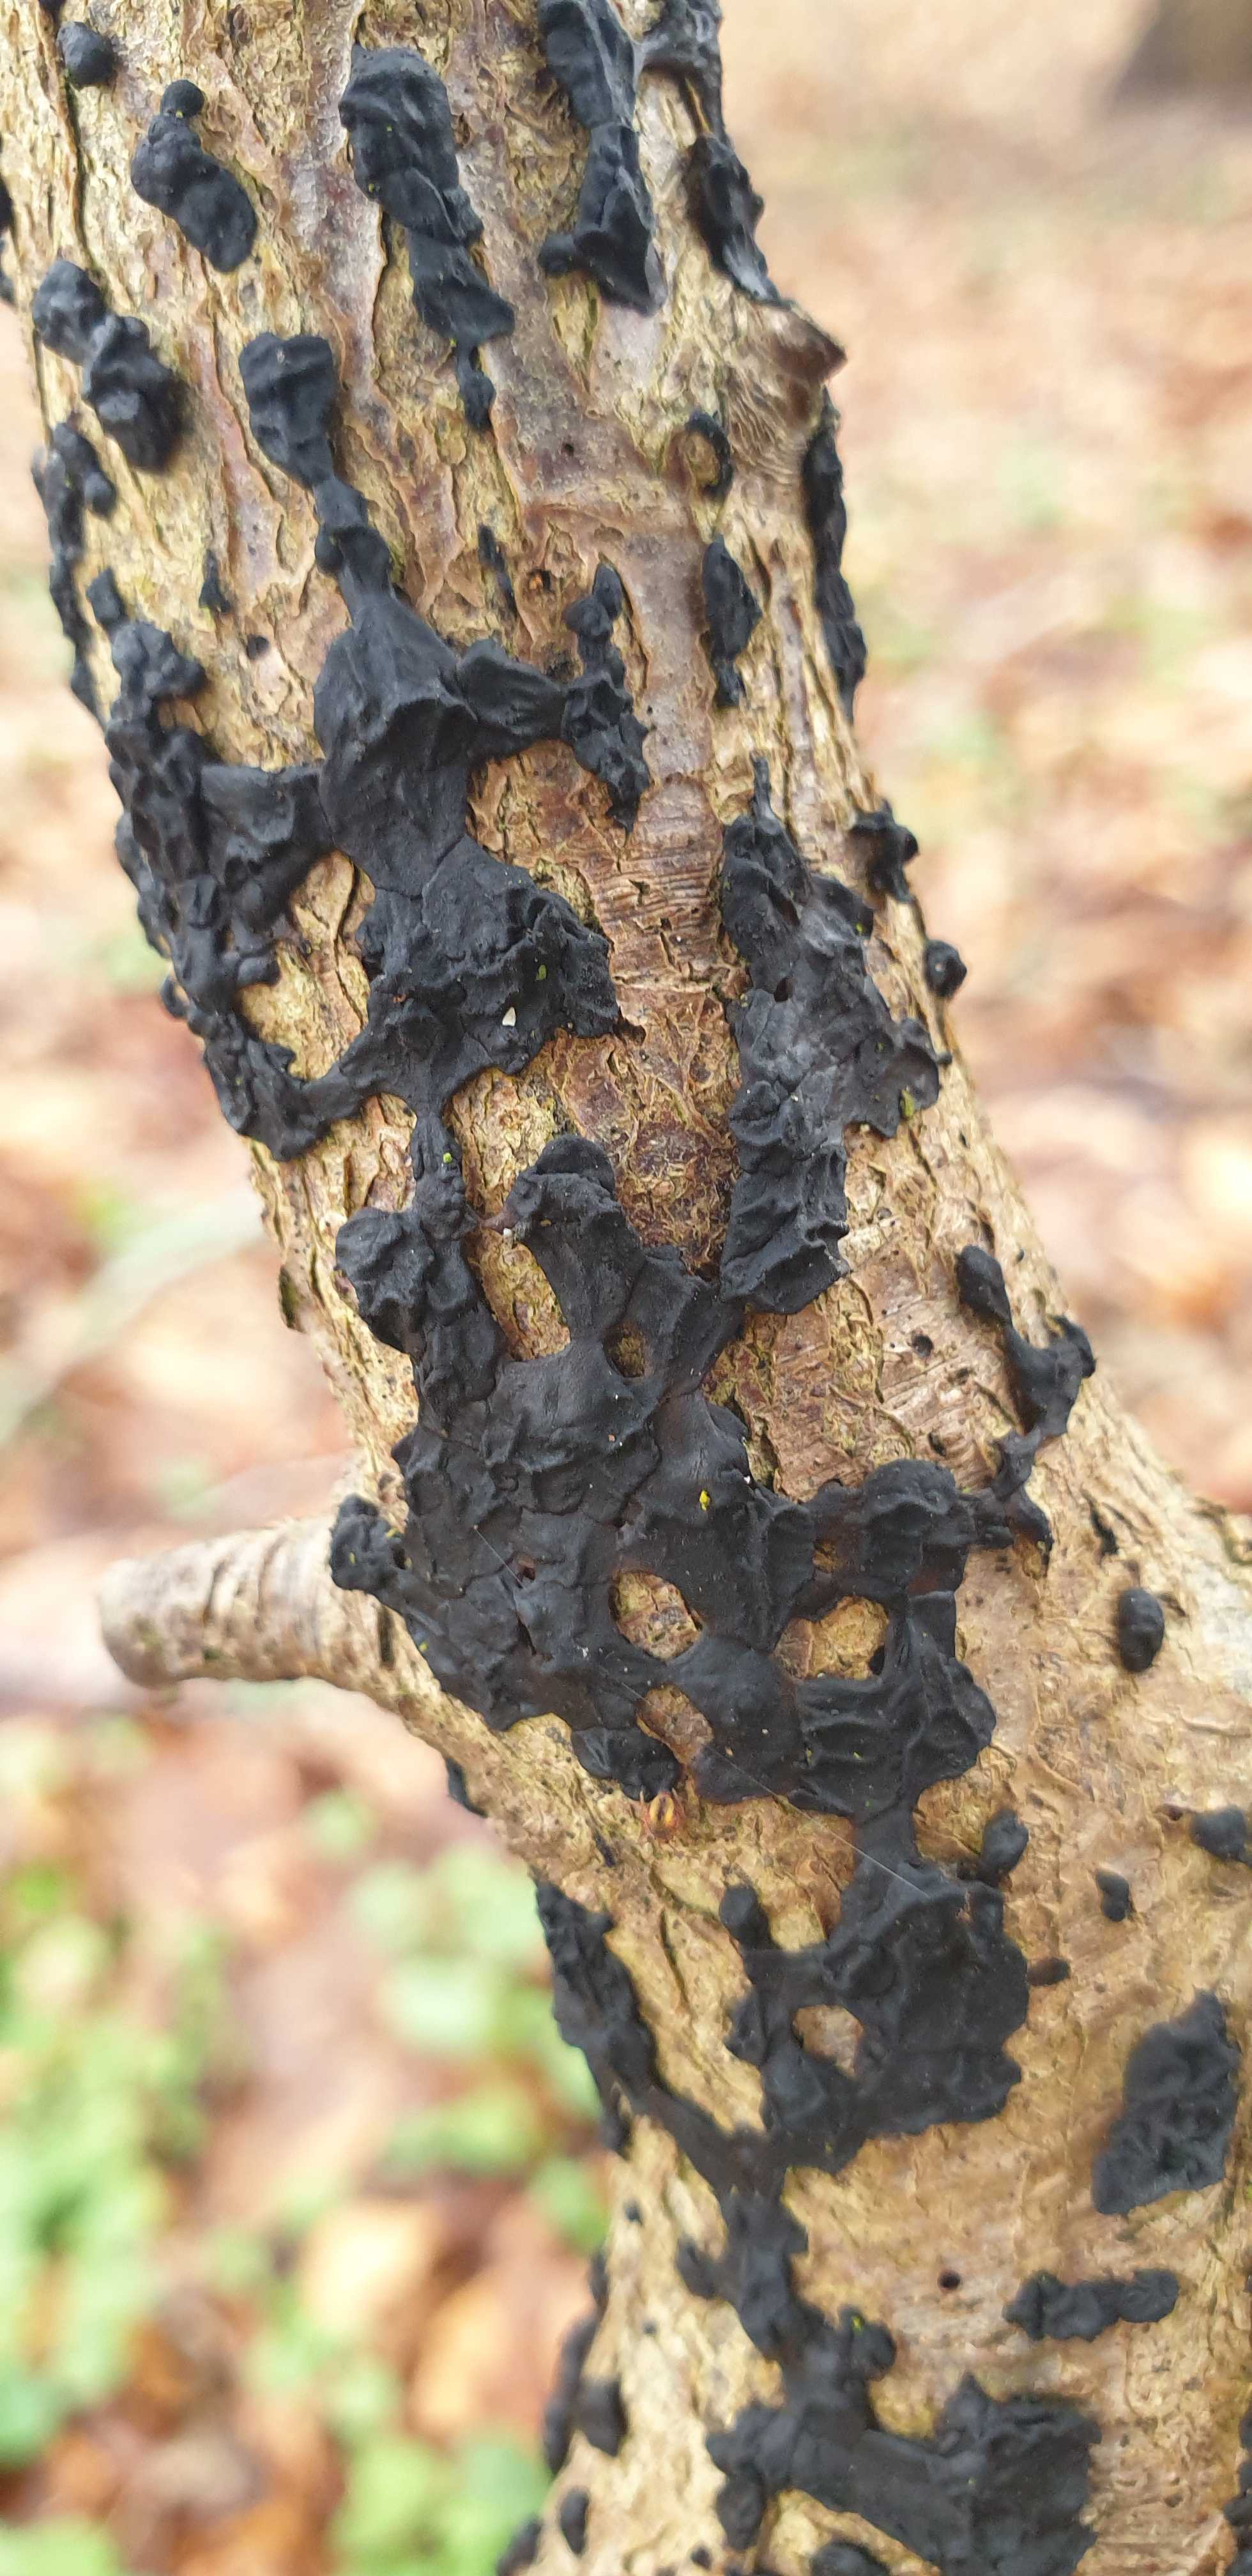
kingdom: Fungi
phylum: Basidiomycota
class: Agaricomycetes
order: Auriculariales
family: Auriculariaceae
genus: Exidia
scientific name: Exidia nigricans
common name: almindelig bævretop
